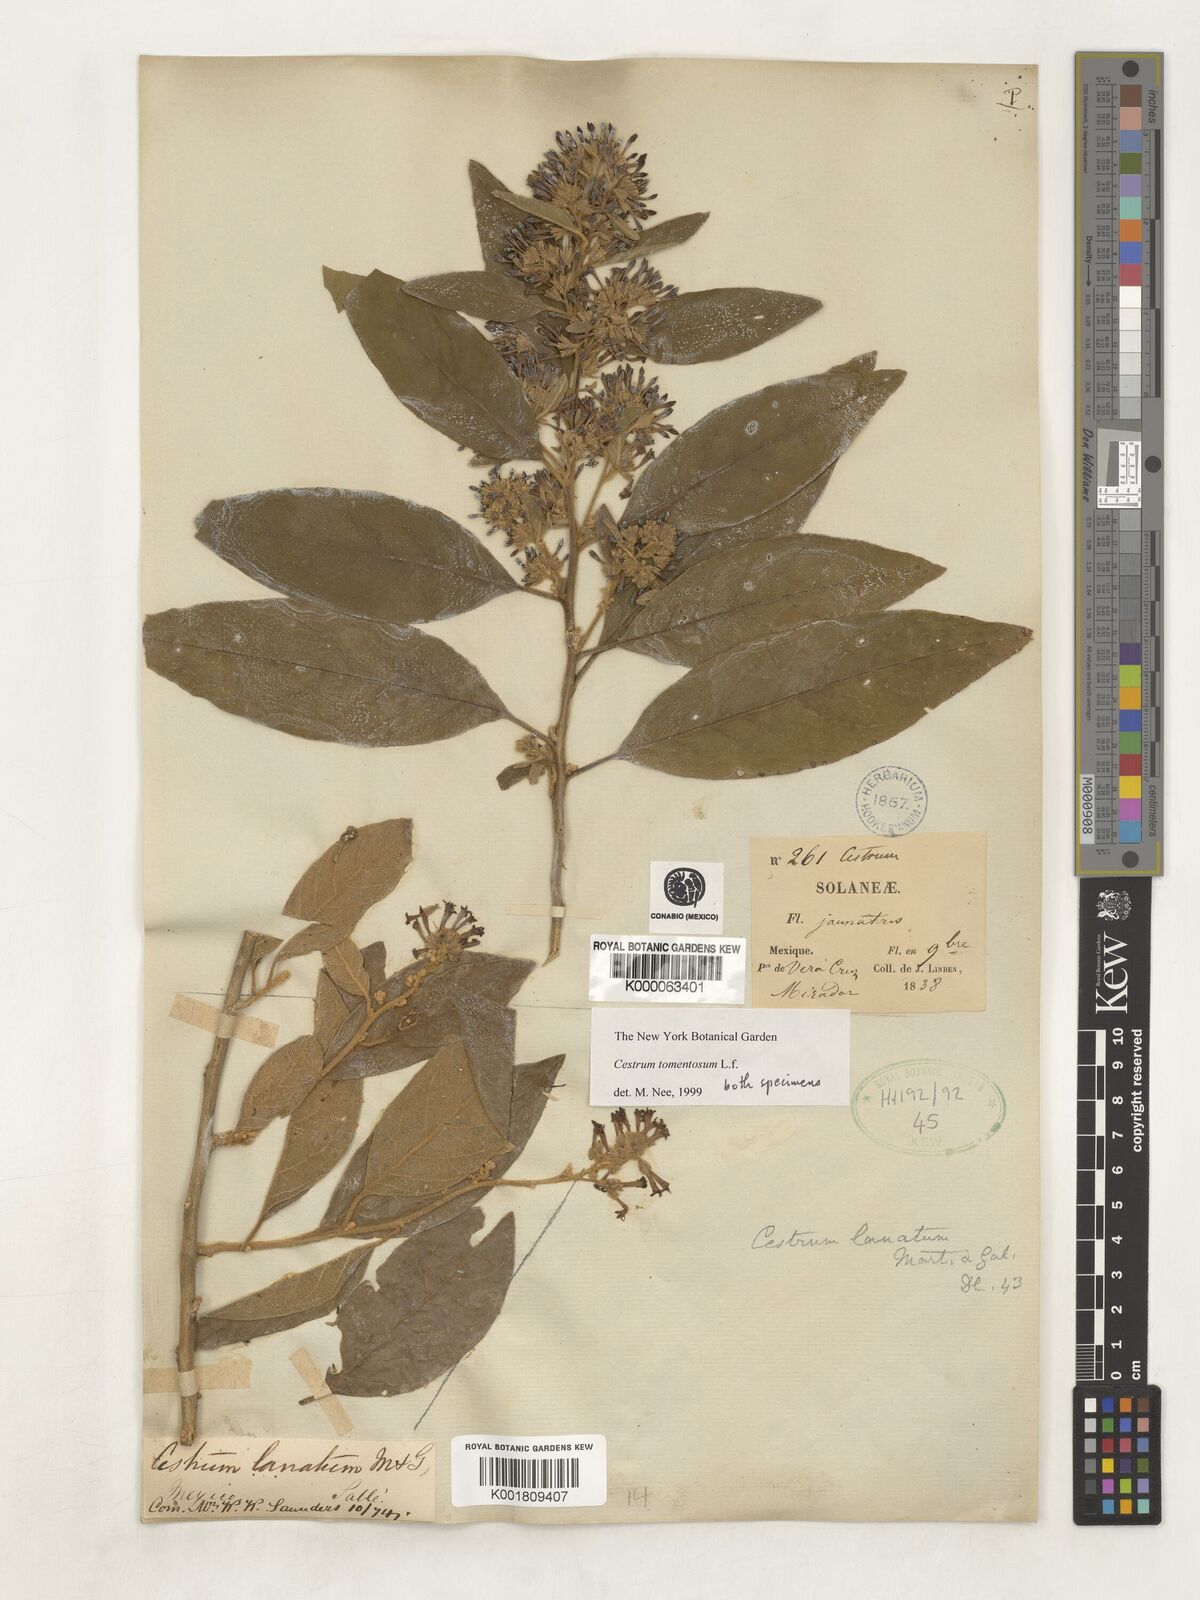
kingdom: Plantae
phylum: Tracheophyta
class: Magnoliopsida
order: Solanales
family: Solanaceae
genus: Cestrum
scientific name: Cestrum tomentosum
